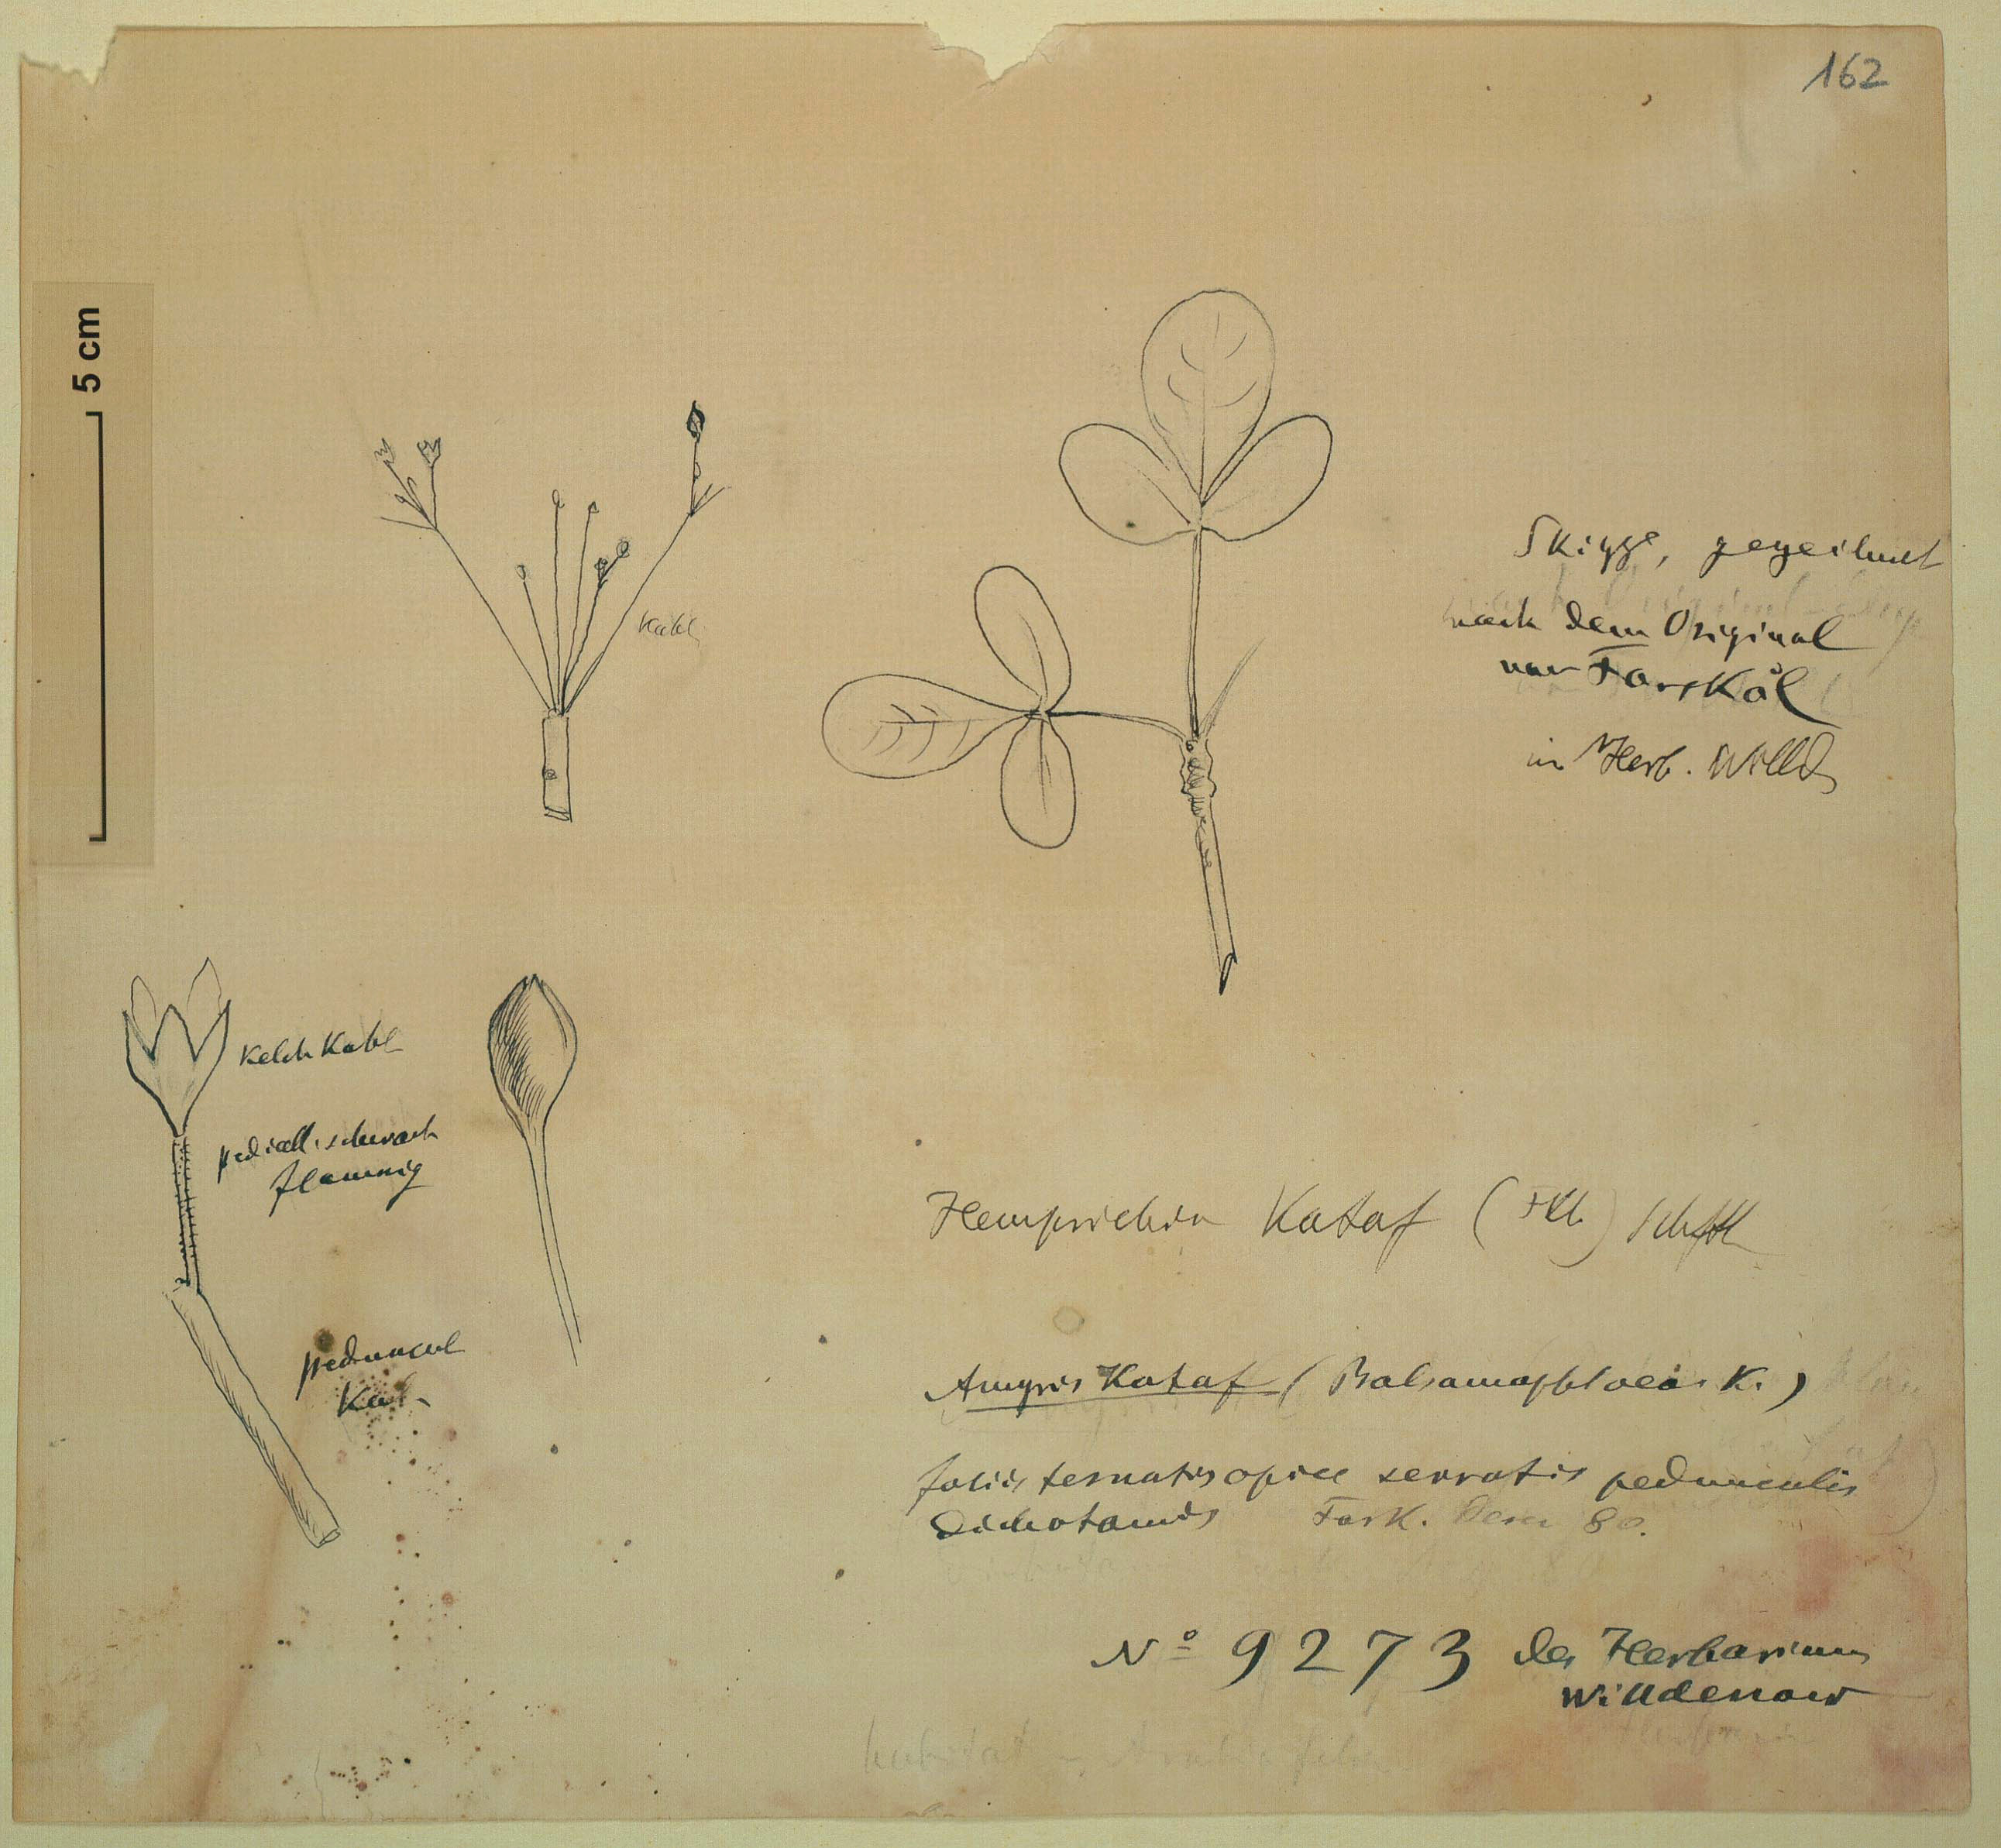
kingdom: Plantae
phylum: Tracheophyta
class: Magnoliopsida
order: Sapindales
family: Burseraceae
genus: Commiphora
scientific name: Commiphora kataf
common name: Bisabol myrrh
